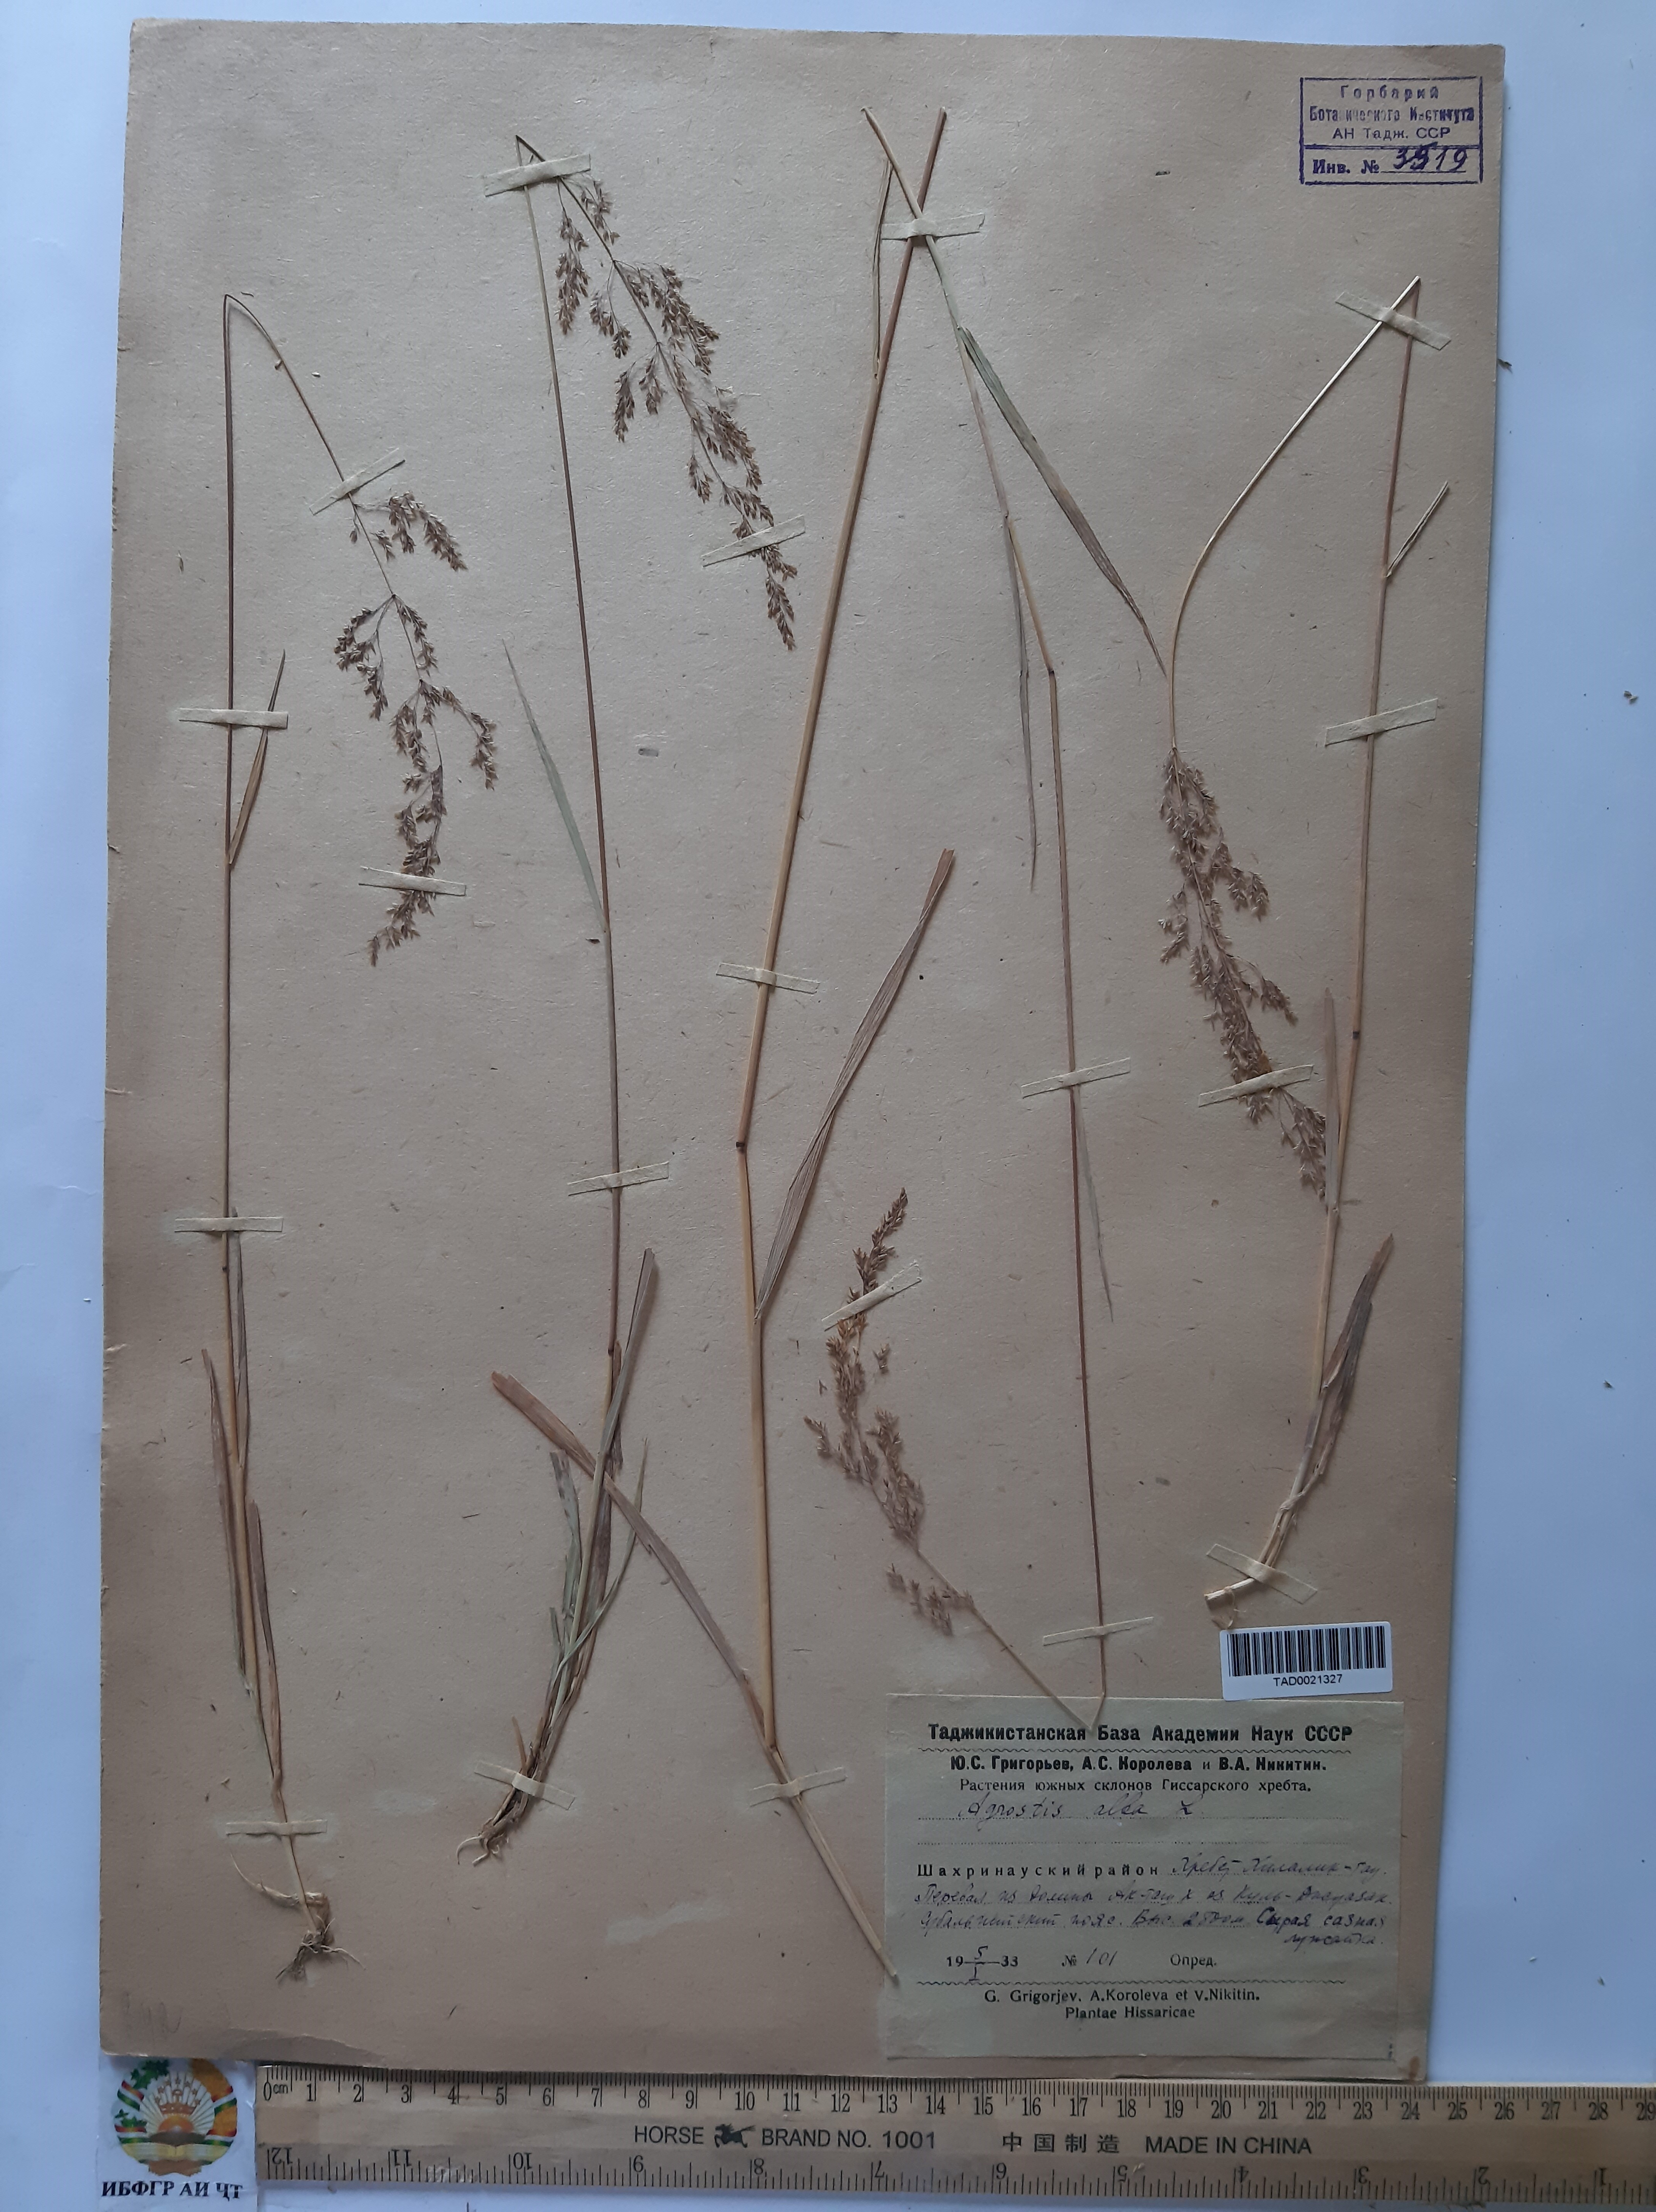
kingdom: Plantae
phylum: Tracheophyta
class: Liliopsida
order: Poales
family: Poaceae
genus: Poa
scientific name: Poa nemoralis
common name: Wood bluegrass
